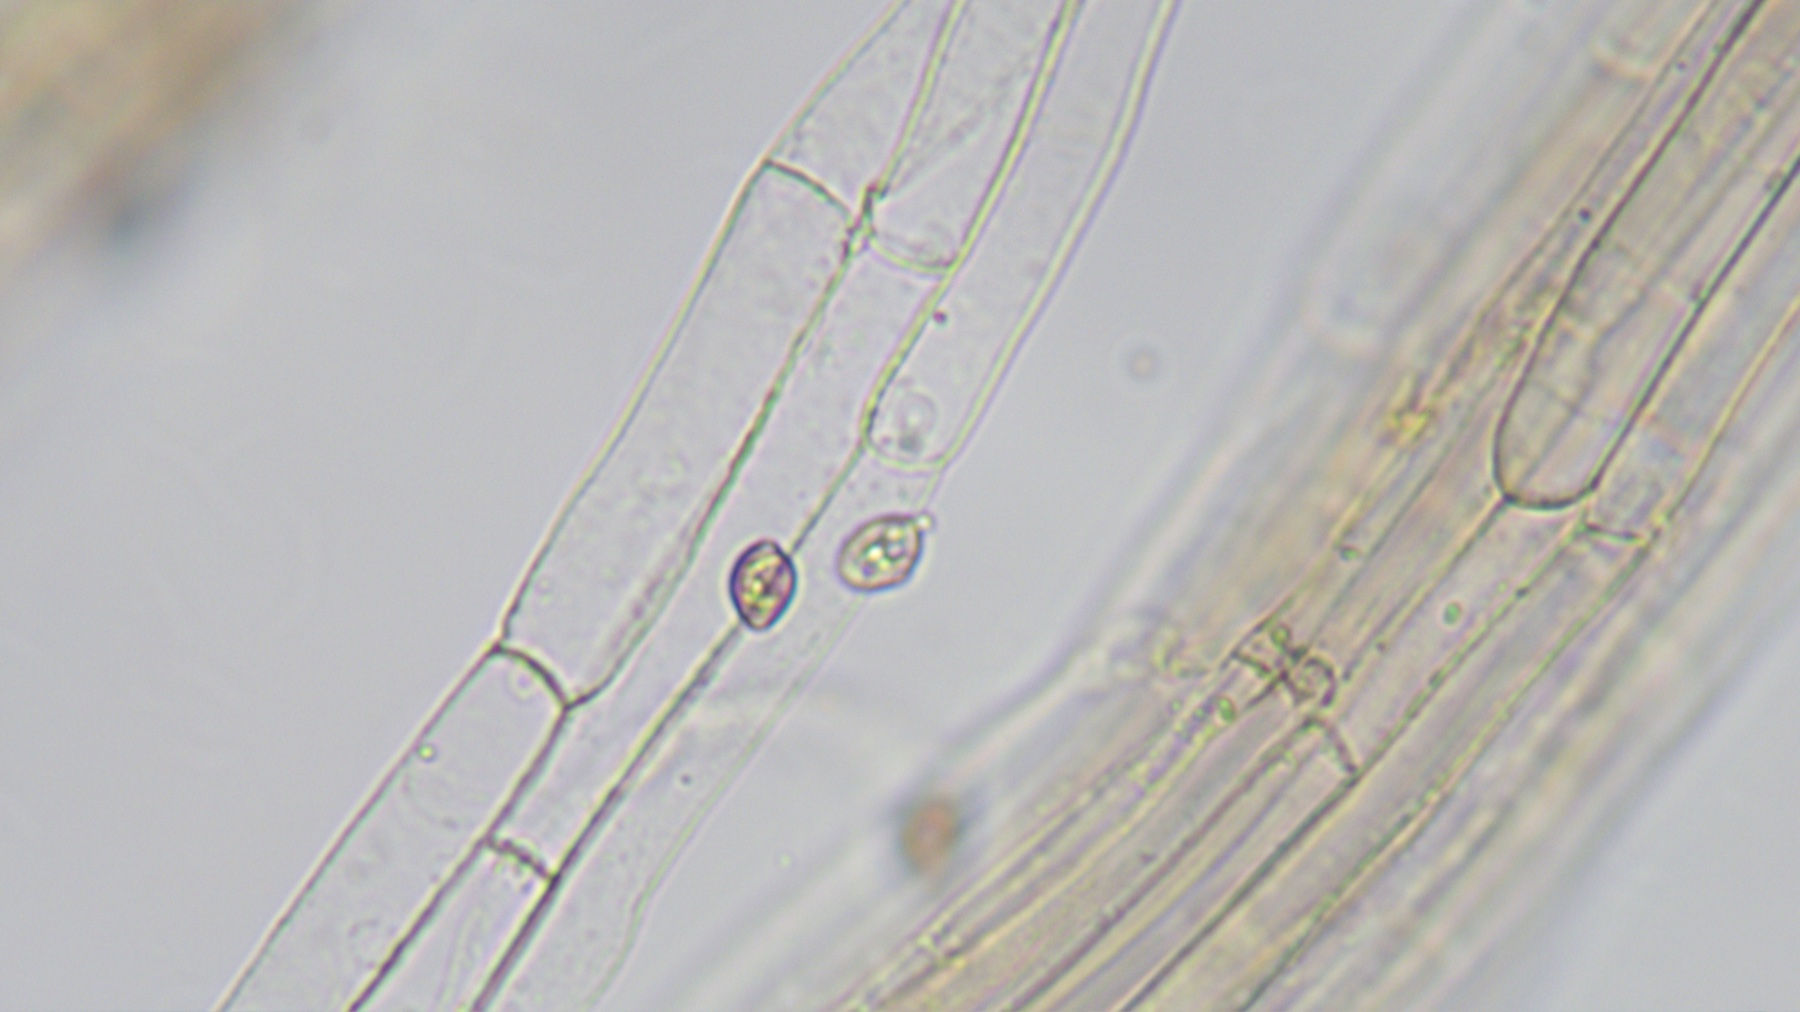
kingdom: Fungi
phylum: Basidiomycota
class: Agaricomycetes
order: Agaricales
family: Hymenogastraceae
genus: Galerina
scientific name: Galerina
